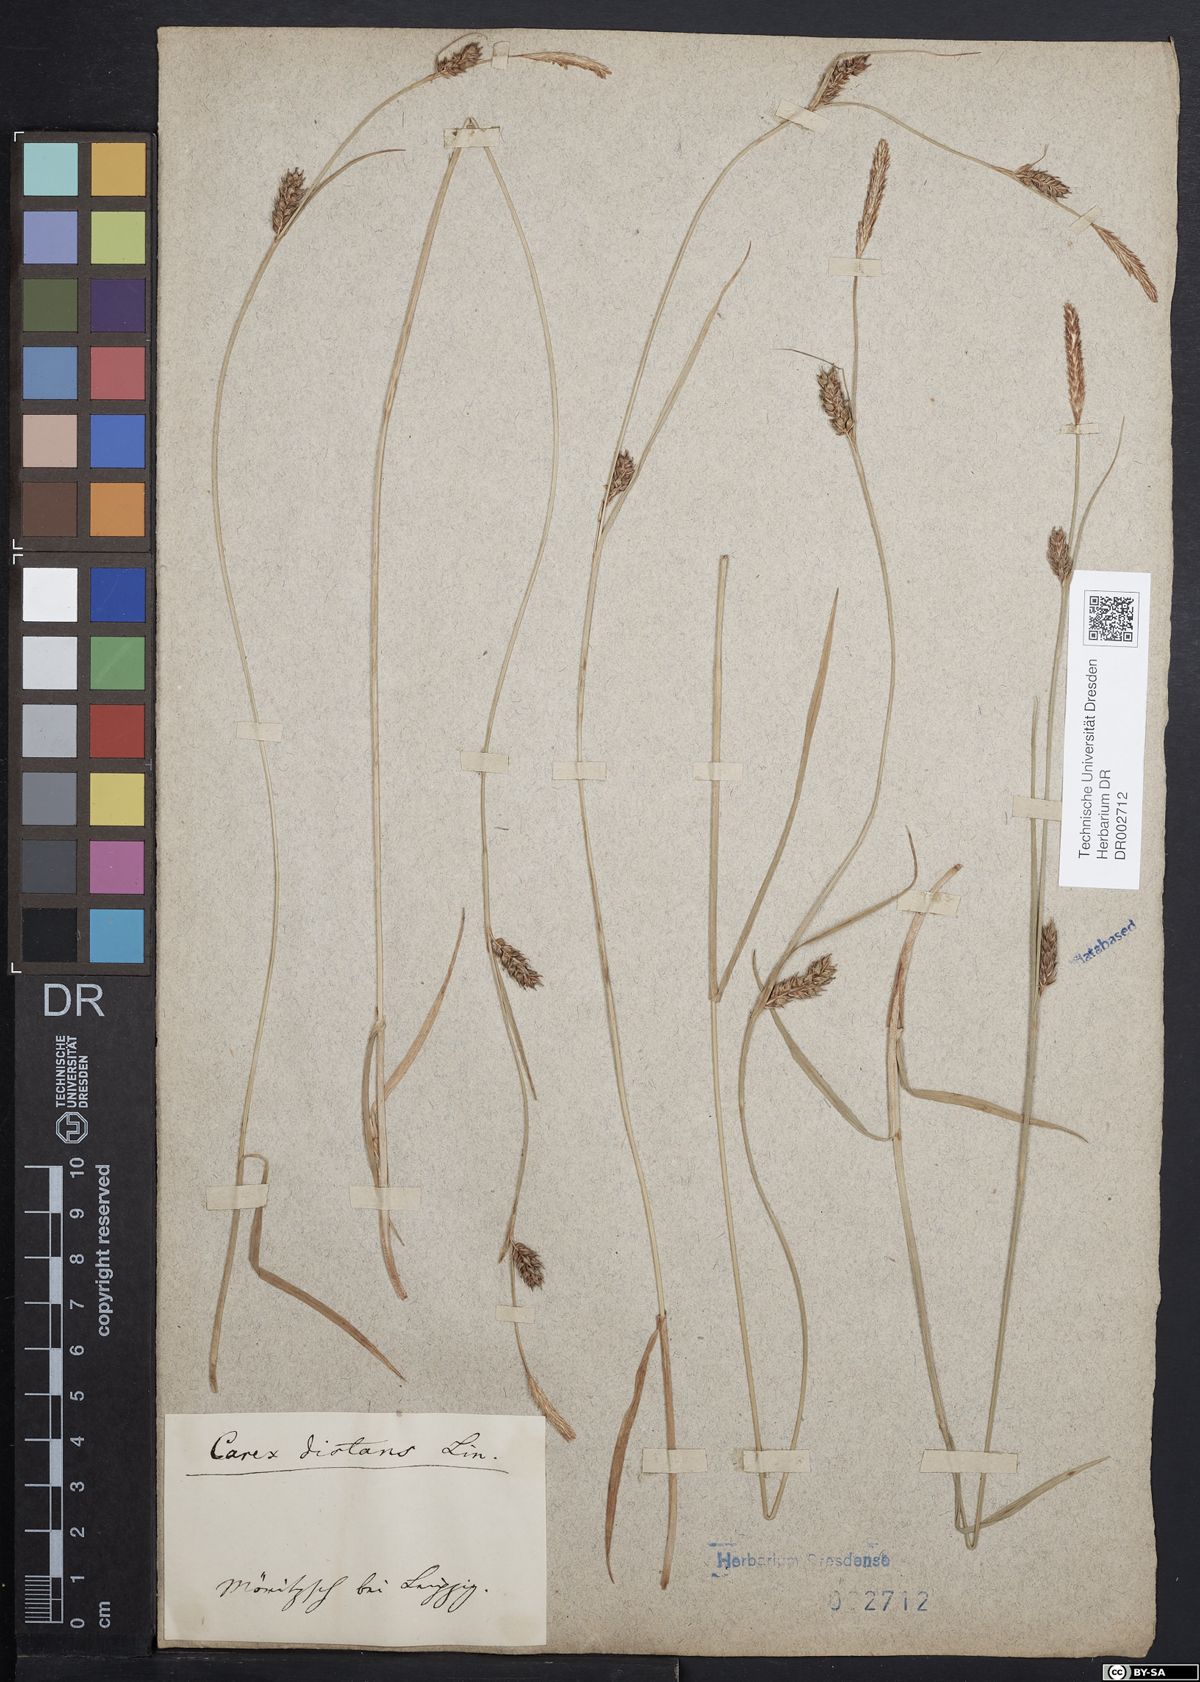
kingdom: Plantae
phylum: Tracheophyta
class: Liliopsida
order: Poales
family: Cyperaceae
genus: Carex
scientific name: Carex distans
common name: Distant sedge
